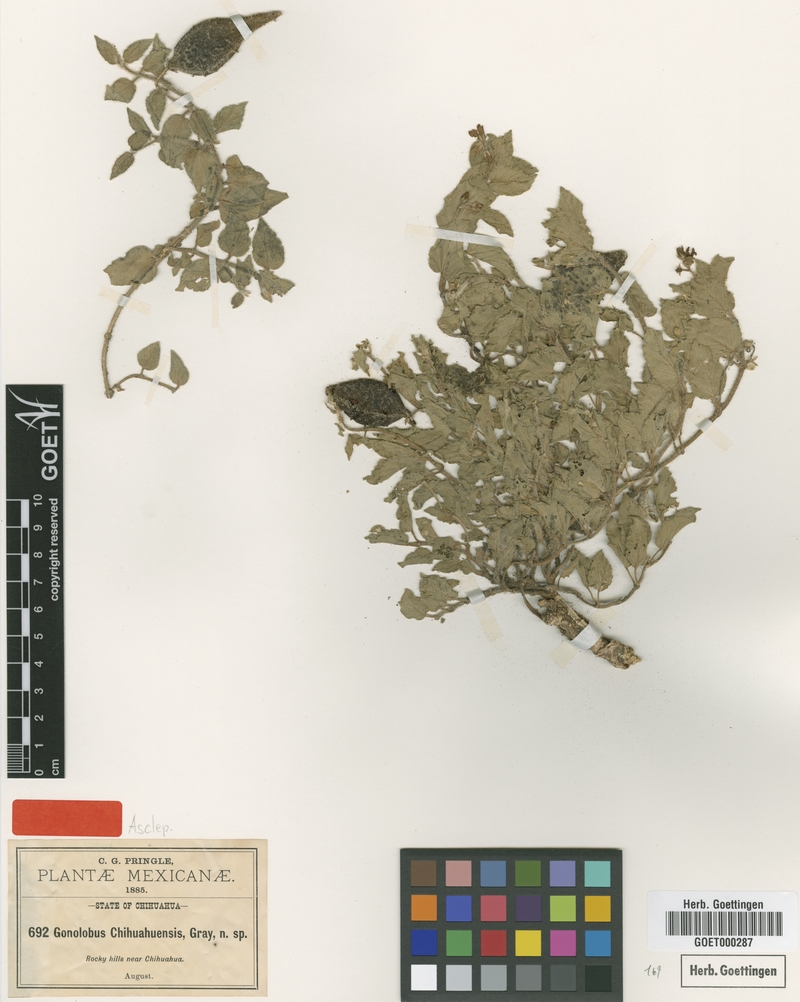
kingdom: Plantae
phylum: Tracheophyta
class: Magnoliopsida
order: Gentianales
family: Apocynaceae
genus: Matelea
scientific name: Matelea chihuahuensis
